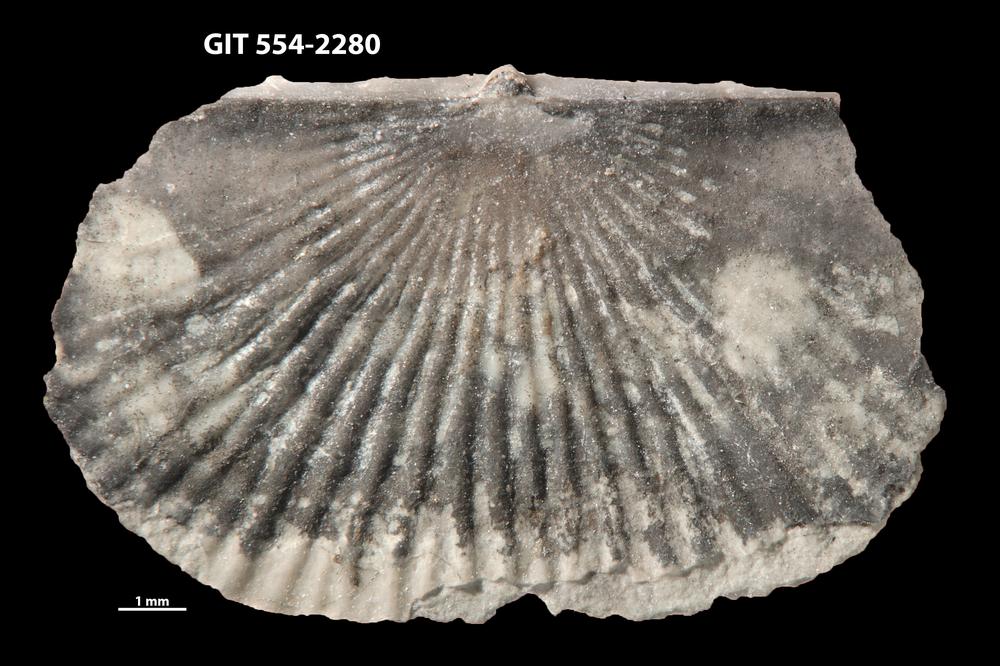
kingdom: Animalia
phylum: Brachiopoda
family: Strophochonetidae
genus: Protochonetes
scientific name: Protochonetes piltenensis
